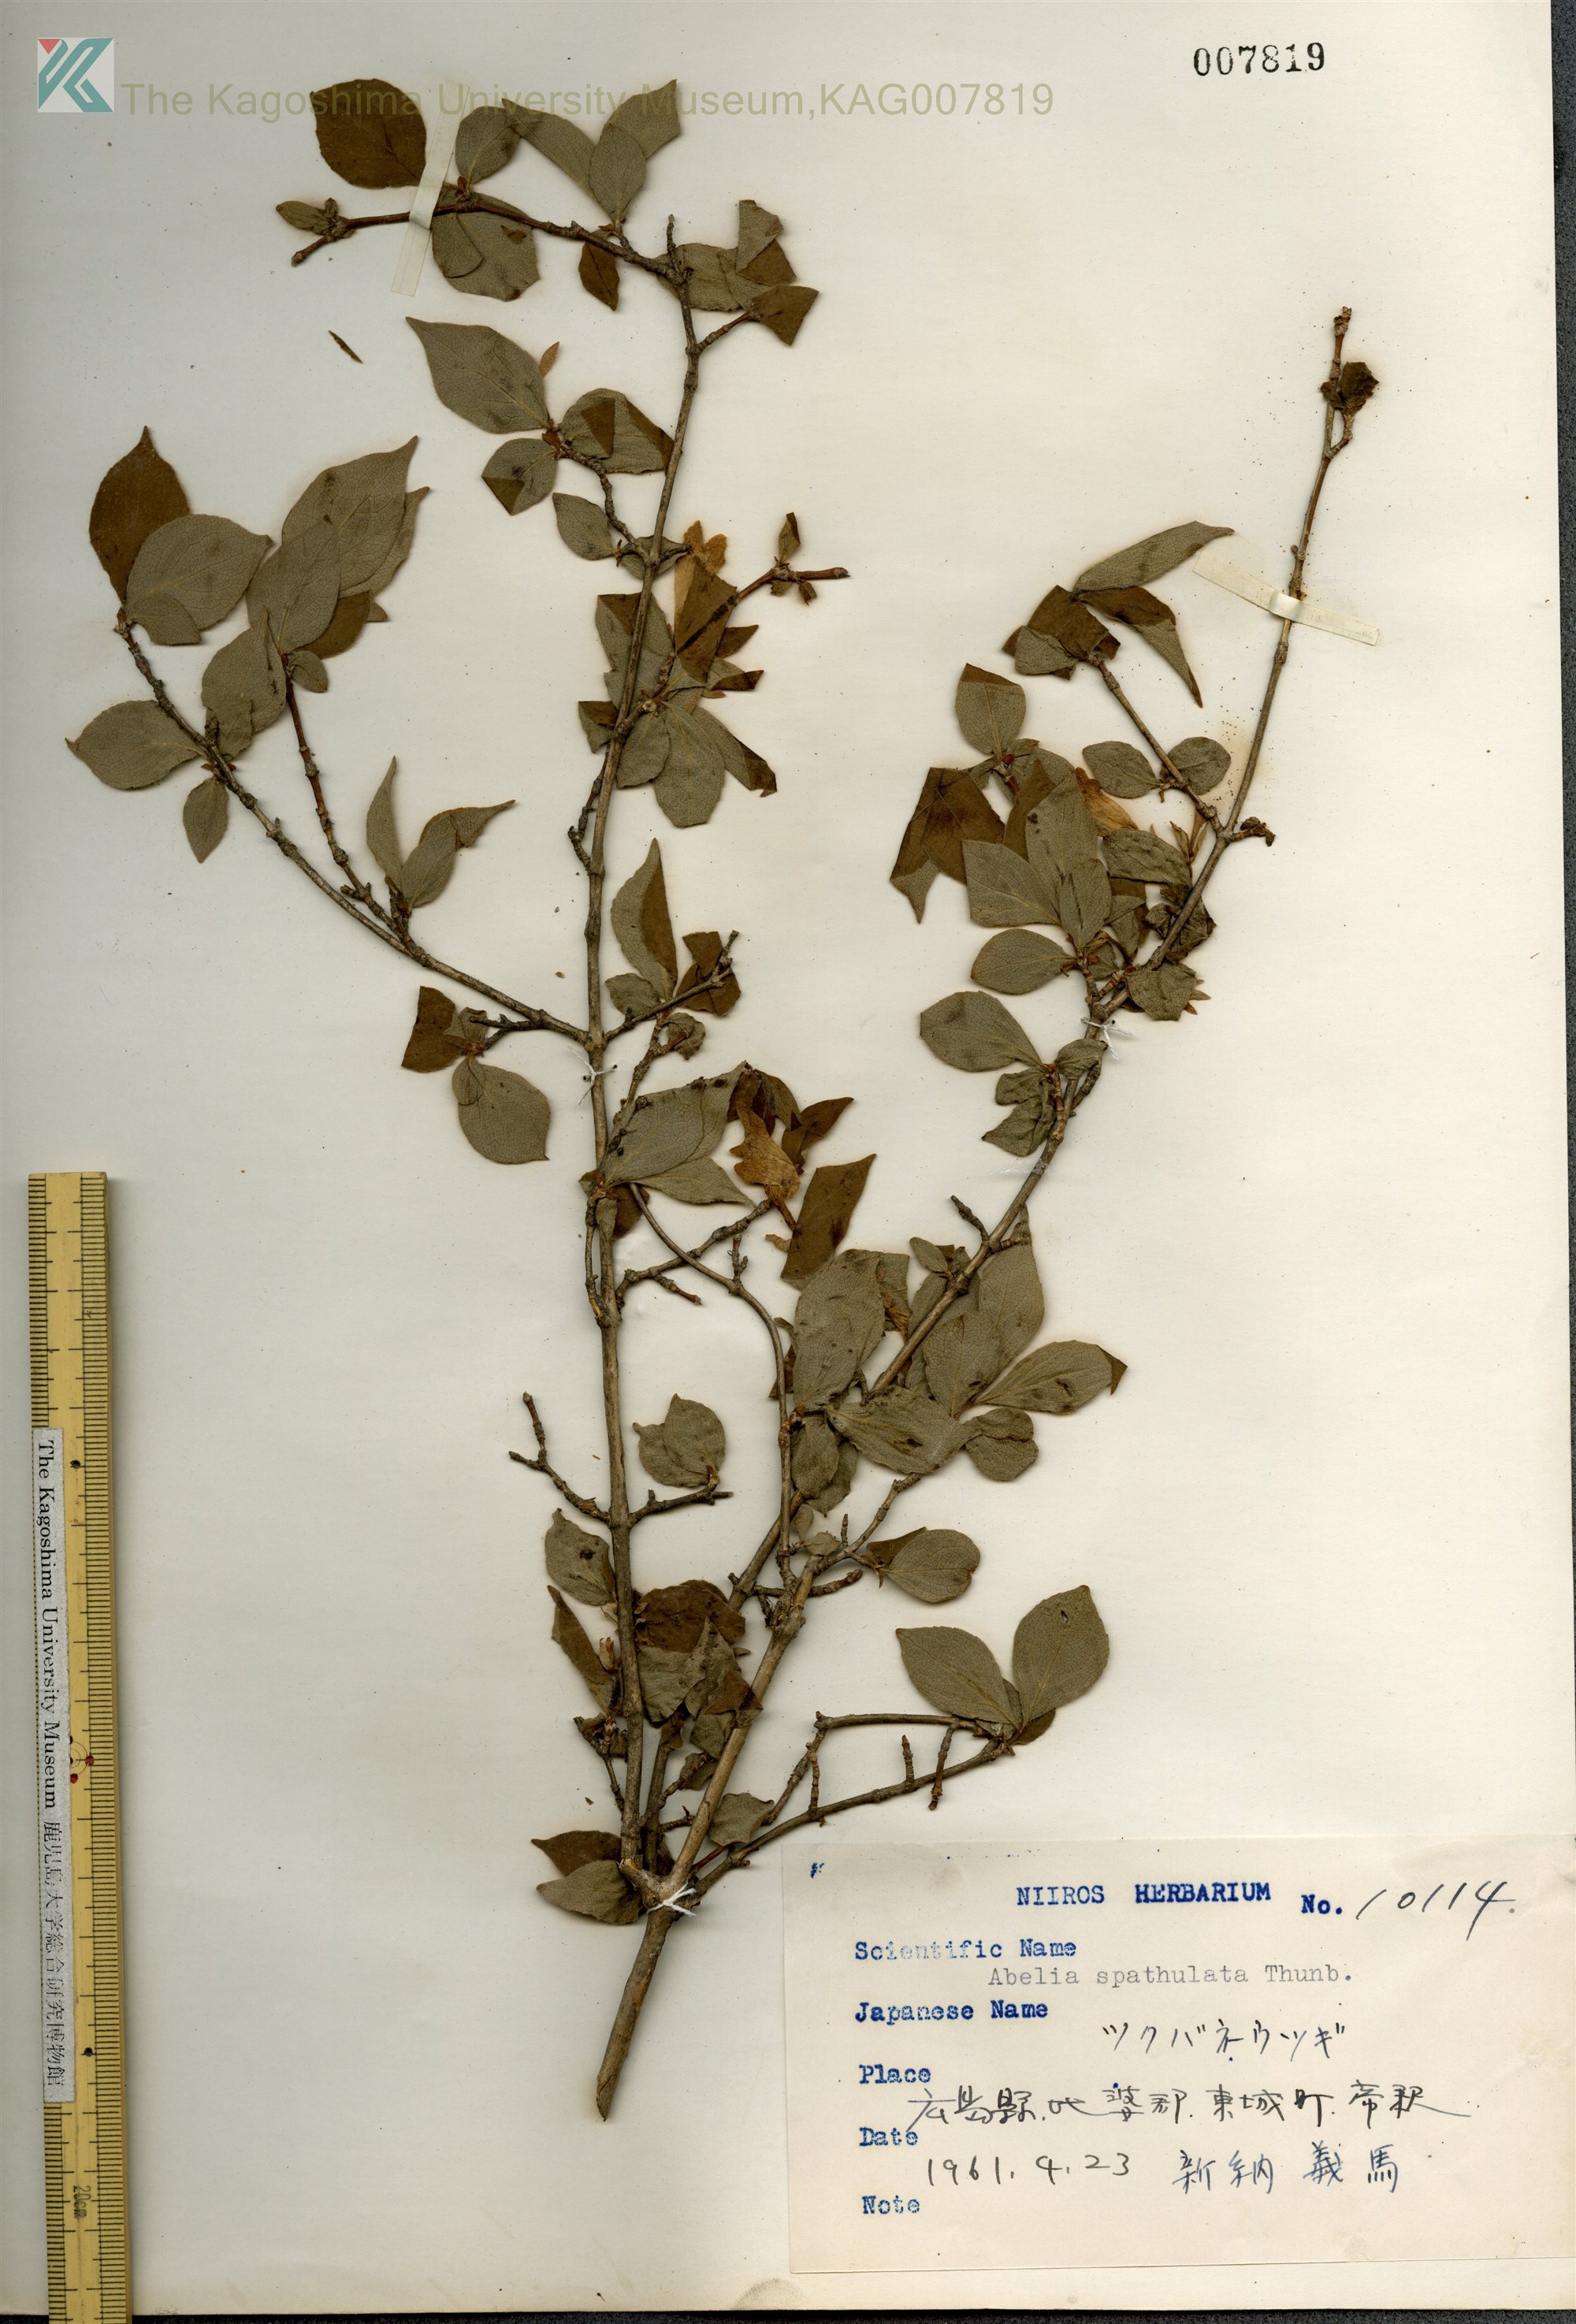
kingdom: Plantae
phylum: Tracheophyta
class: Magnoliopsida
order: Dipsacales
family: Caprifoliaceae
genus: Diabelia
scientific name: Diabelia spathulata
